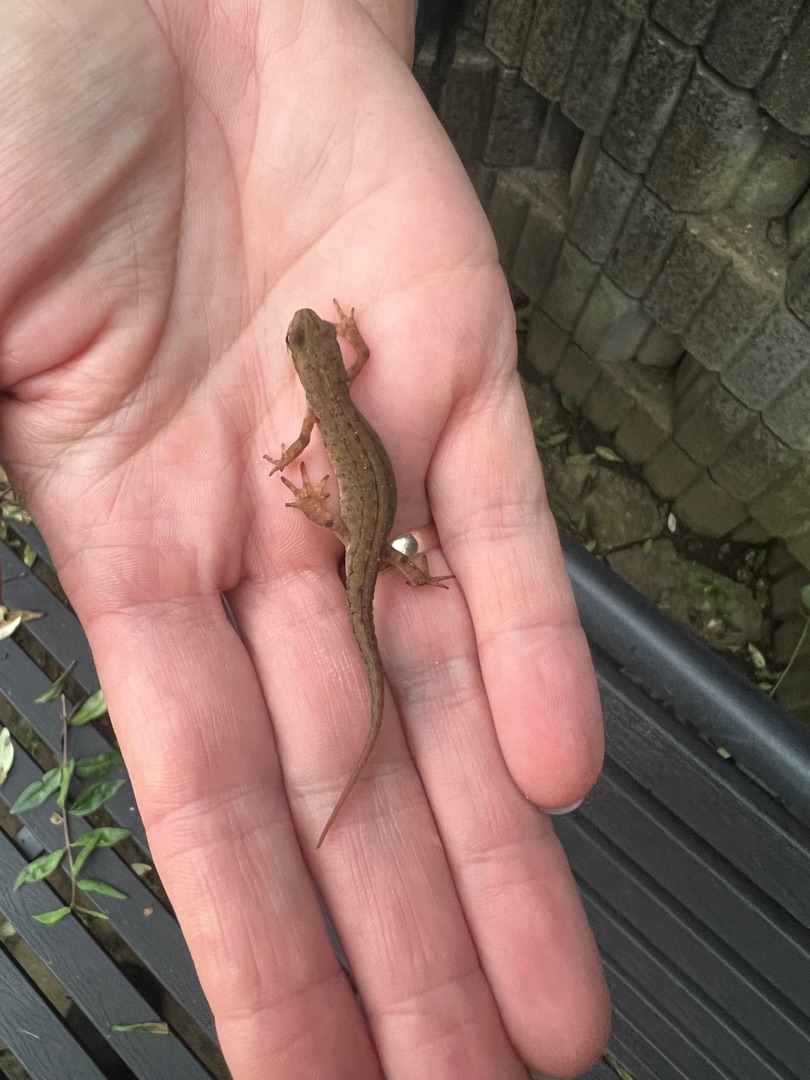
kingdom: Animalia
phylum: Chordata
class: Amphibia
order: Caudata
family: Salamandridae
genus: Lissotriton
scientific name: Lissotriton vulgaris
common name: Lille vandsalamander
